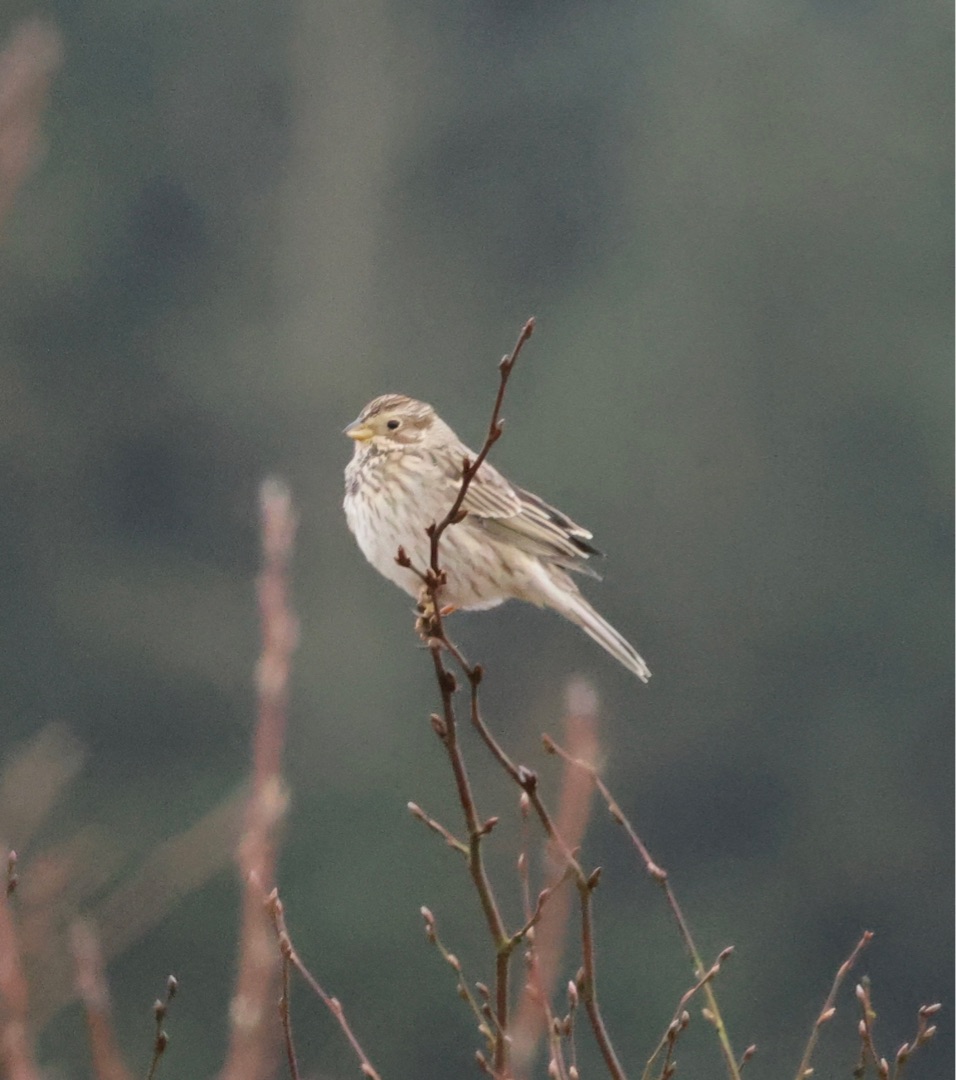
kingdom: Animalia
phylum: Chordata
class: Aves
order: Passeriformes
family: Emberizidae
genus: Emberiza
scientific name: Emberiza calandra
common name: Bomlærke
